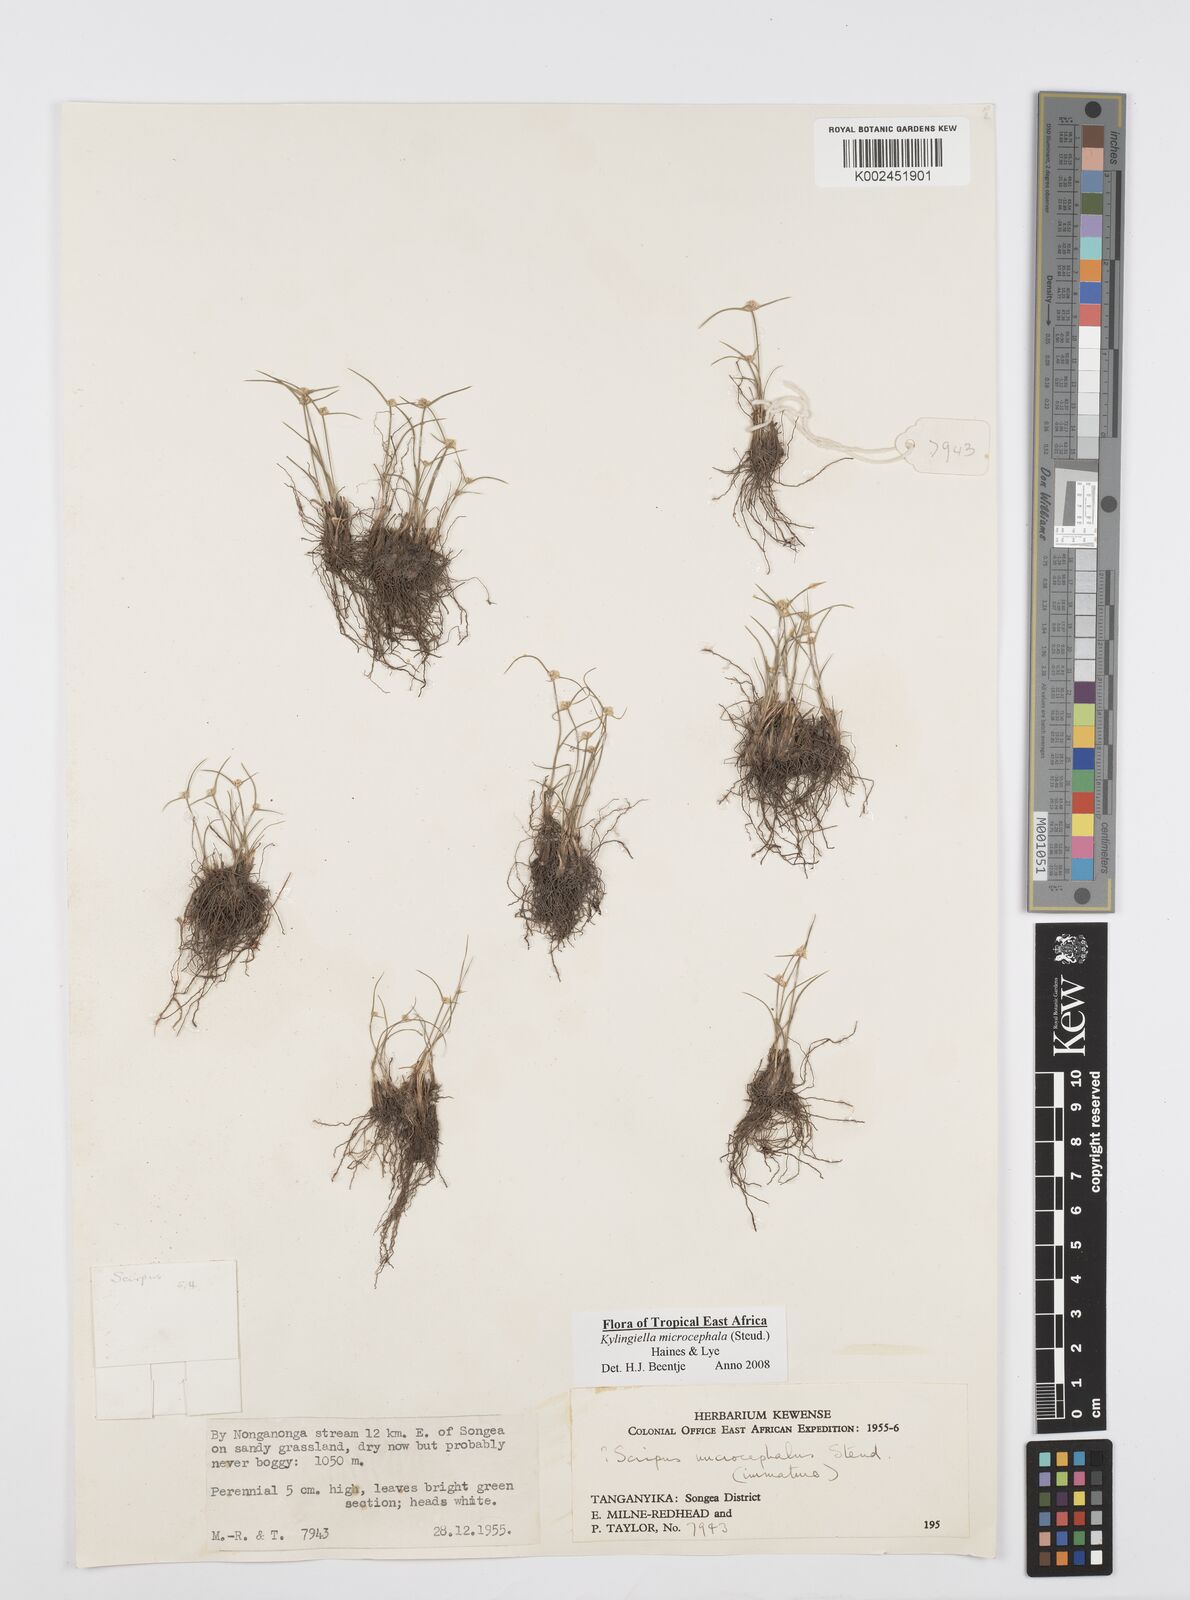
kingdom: Plantae
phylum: Tracheophyta
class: Liliopsida
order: Poales
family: Cyperaceae
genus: Cyperus
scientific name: Cyperus microcephalus
